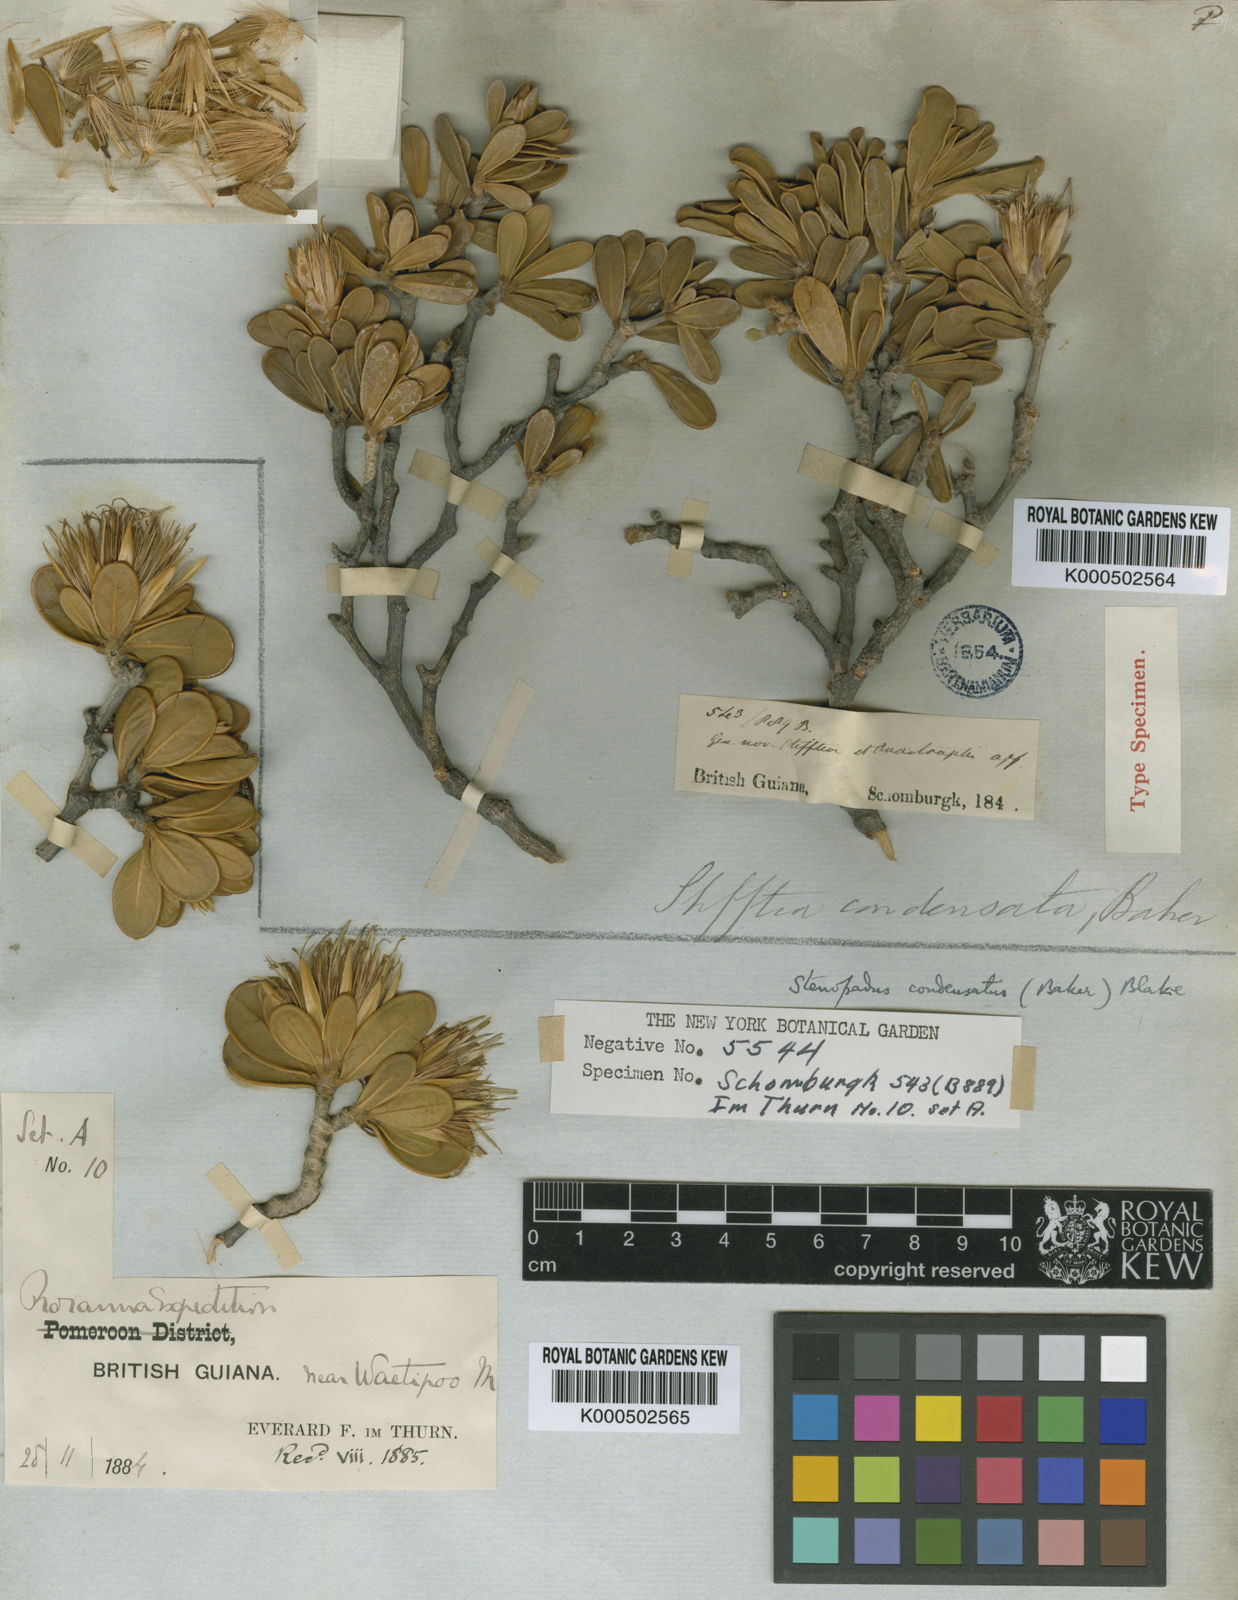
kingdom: Plantae
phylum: Tracheophyta
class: Magnoliopsida
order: Asterales
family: Asteraceae
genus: Stomatochaeta
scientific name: Stomatochaeta condensata
